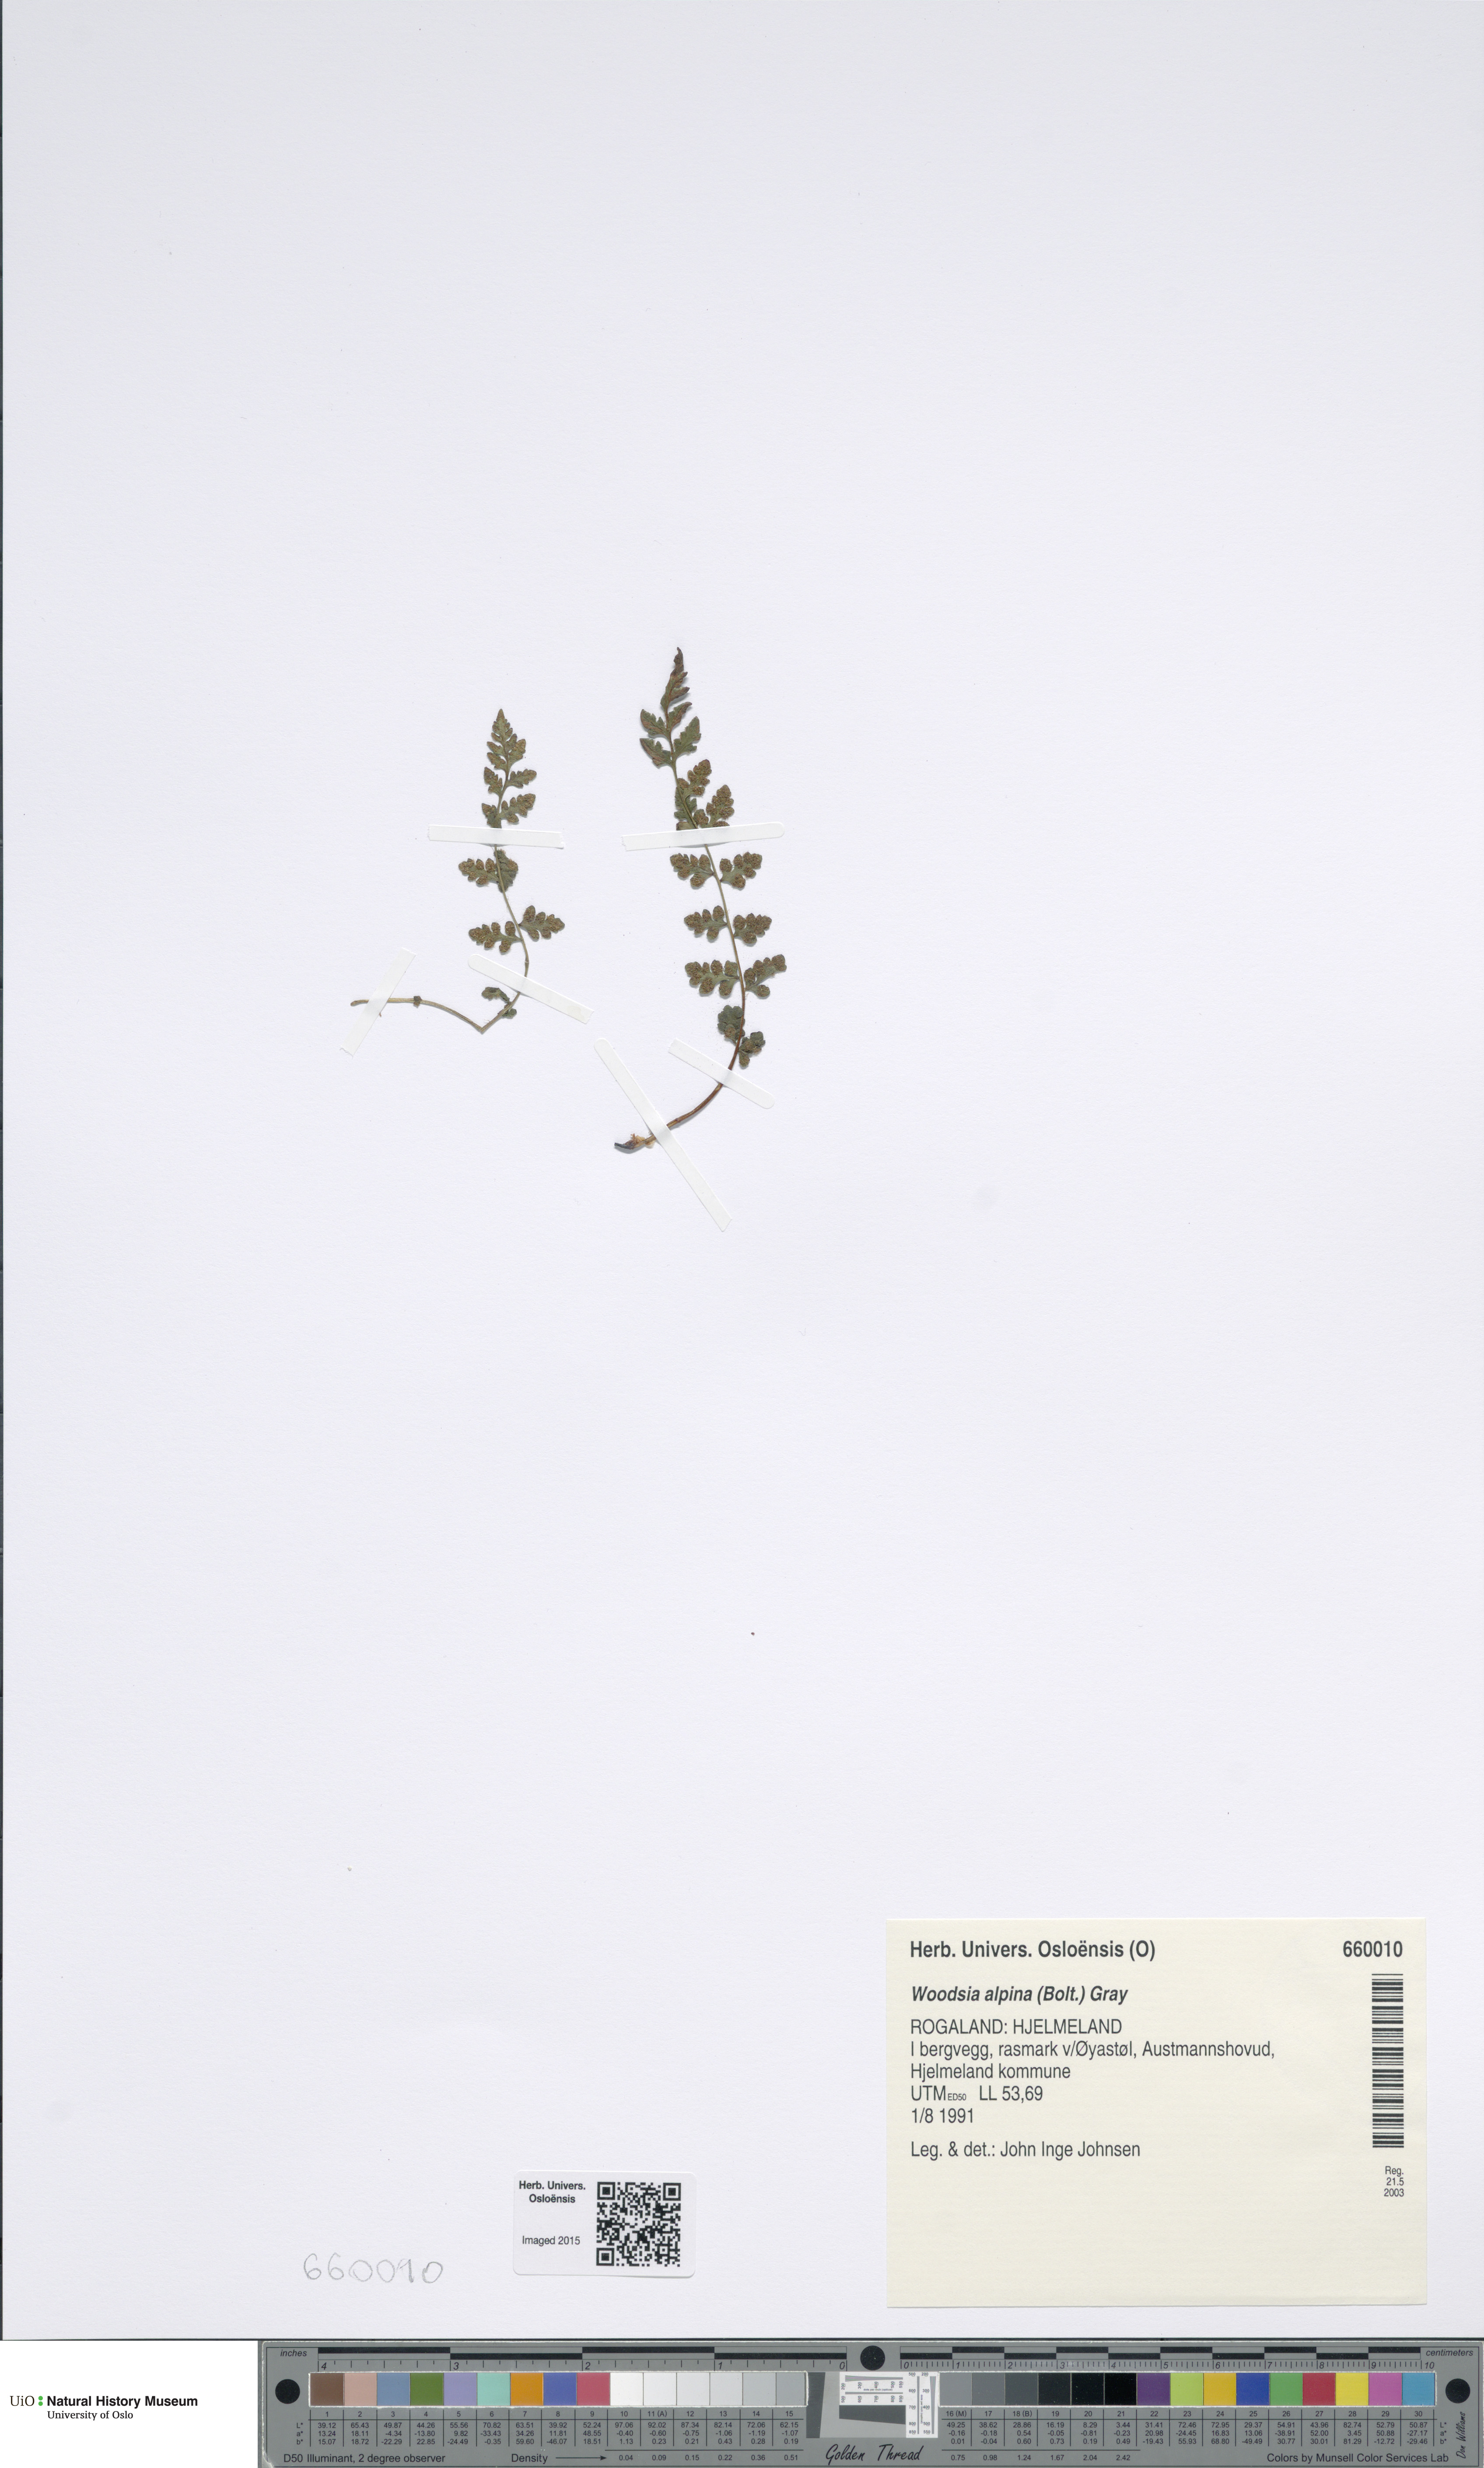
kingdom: Plantae
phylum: Tracheophyta
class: Polypodiopsida
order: Polypodiales
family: Woodsiaceae
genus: Woodsia
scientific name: Woodsia alpina
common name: Alpine woodsia
